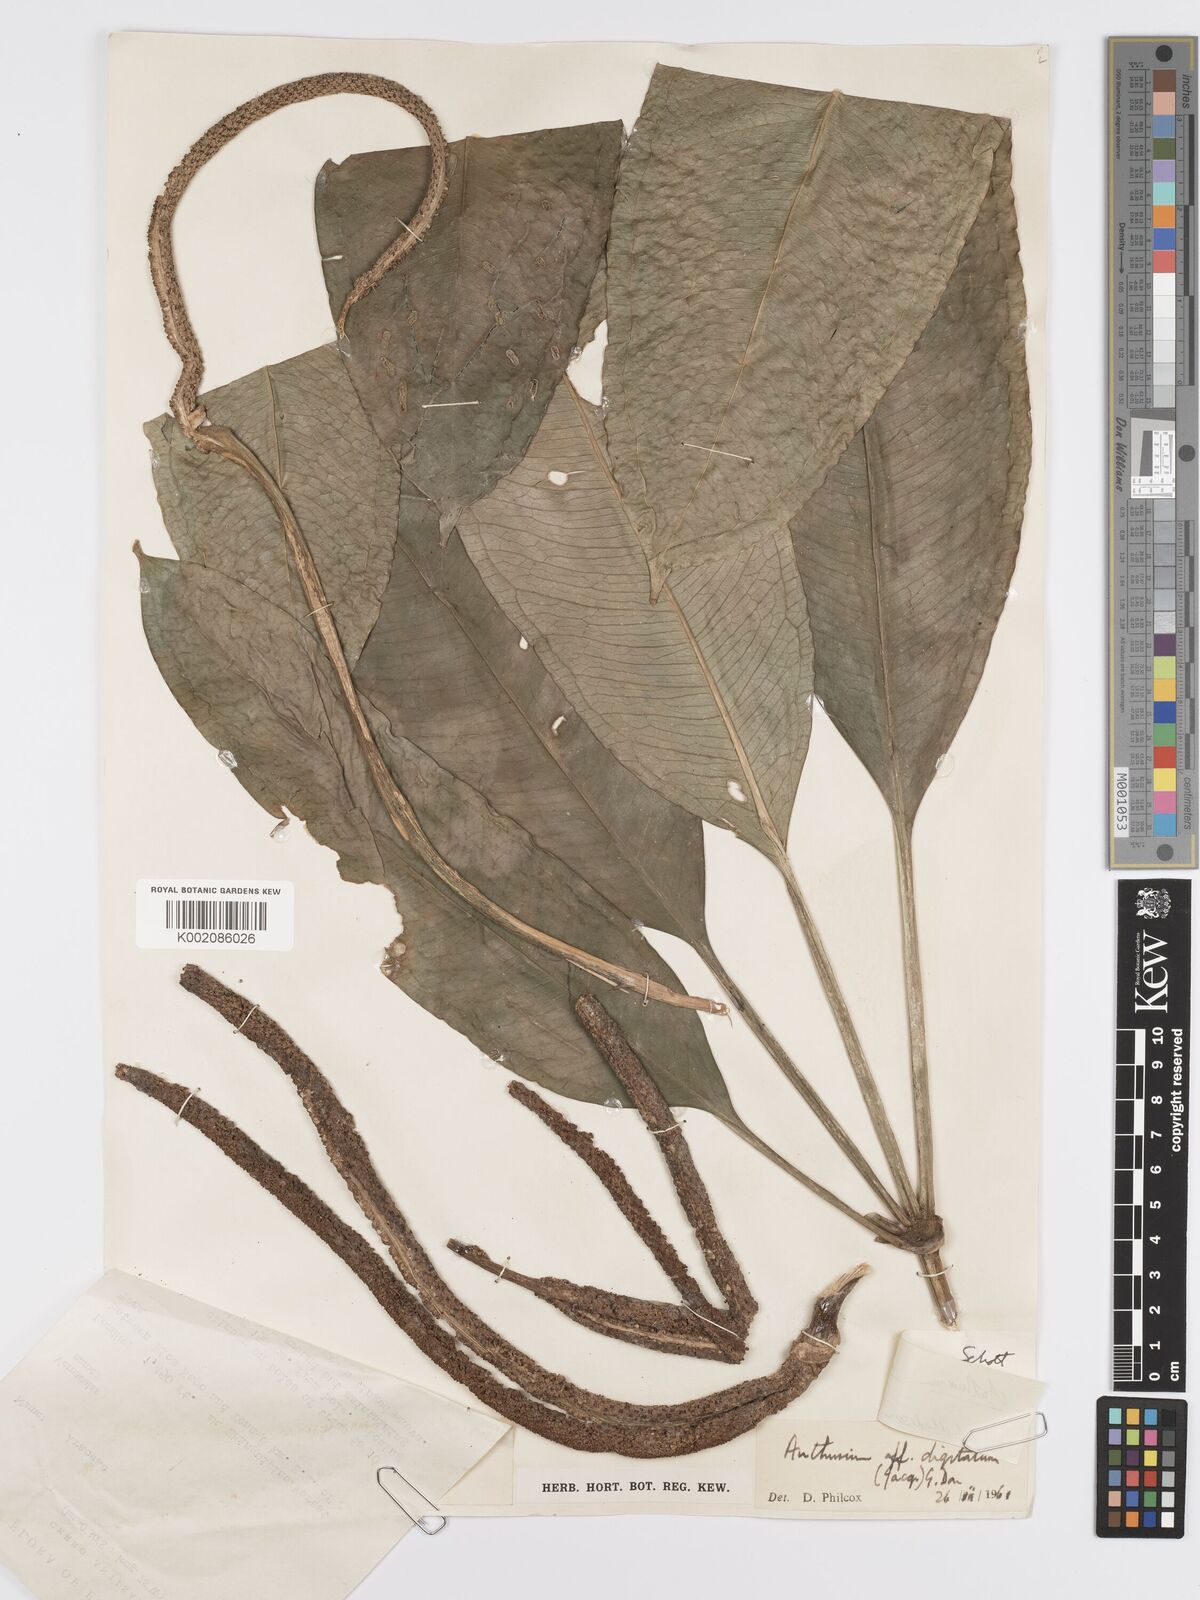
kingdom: Plantae
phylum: Tracheophyta
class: Liliopsida
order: Alismatales
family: Araceae
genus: Anthurium
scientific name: Anthurium eminens
